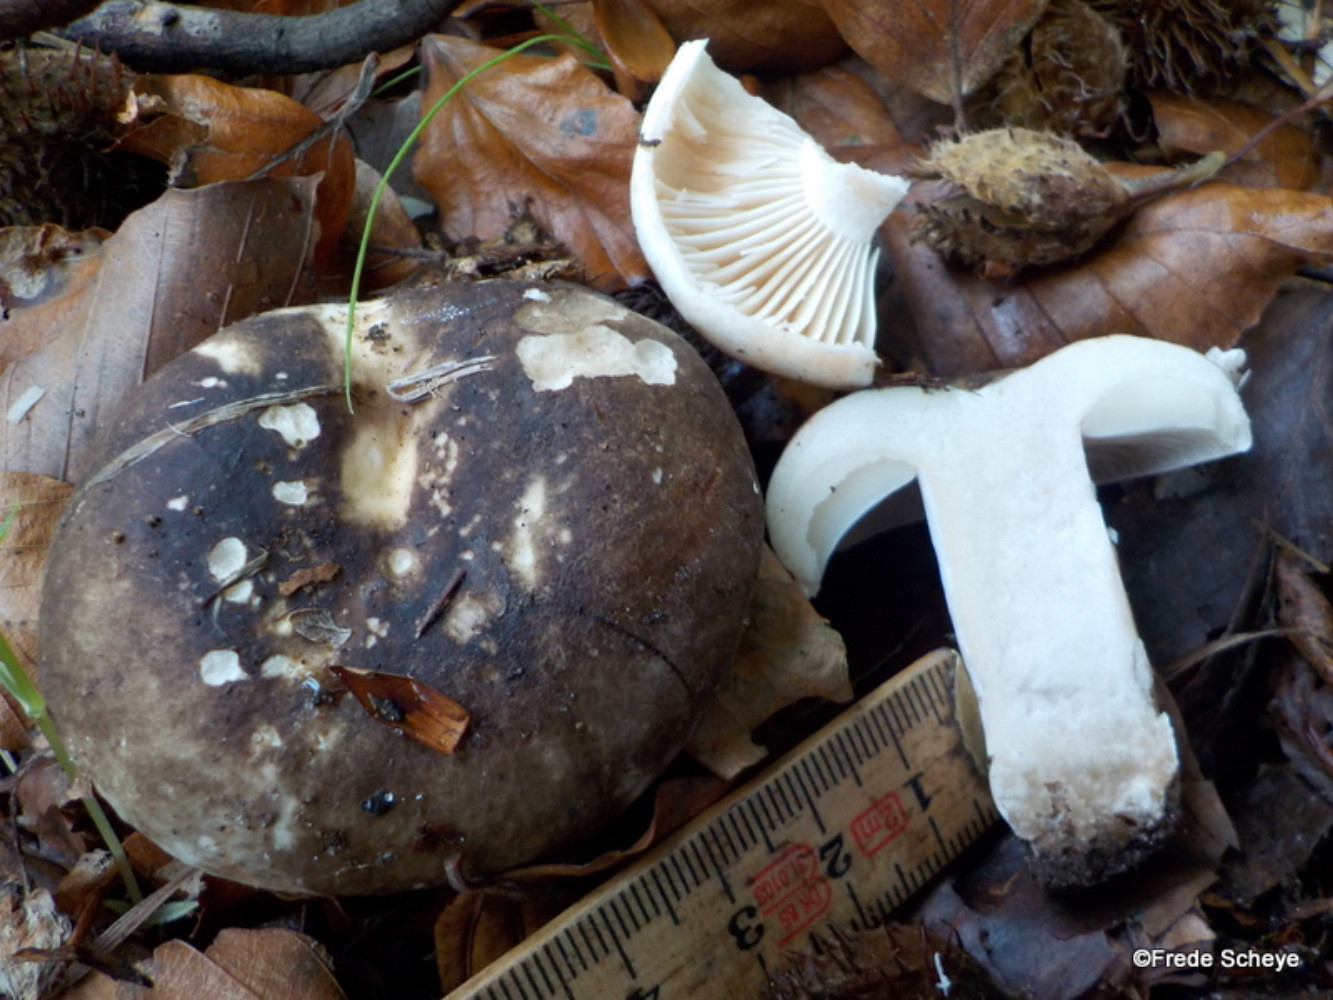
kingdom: Fungi
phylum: Basidiomycota
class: Agaricomycetes
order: Russulales
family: Russulaceae
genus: Russula
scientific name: Russula adusta
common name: sværtende skørhat
